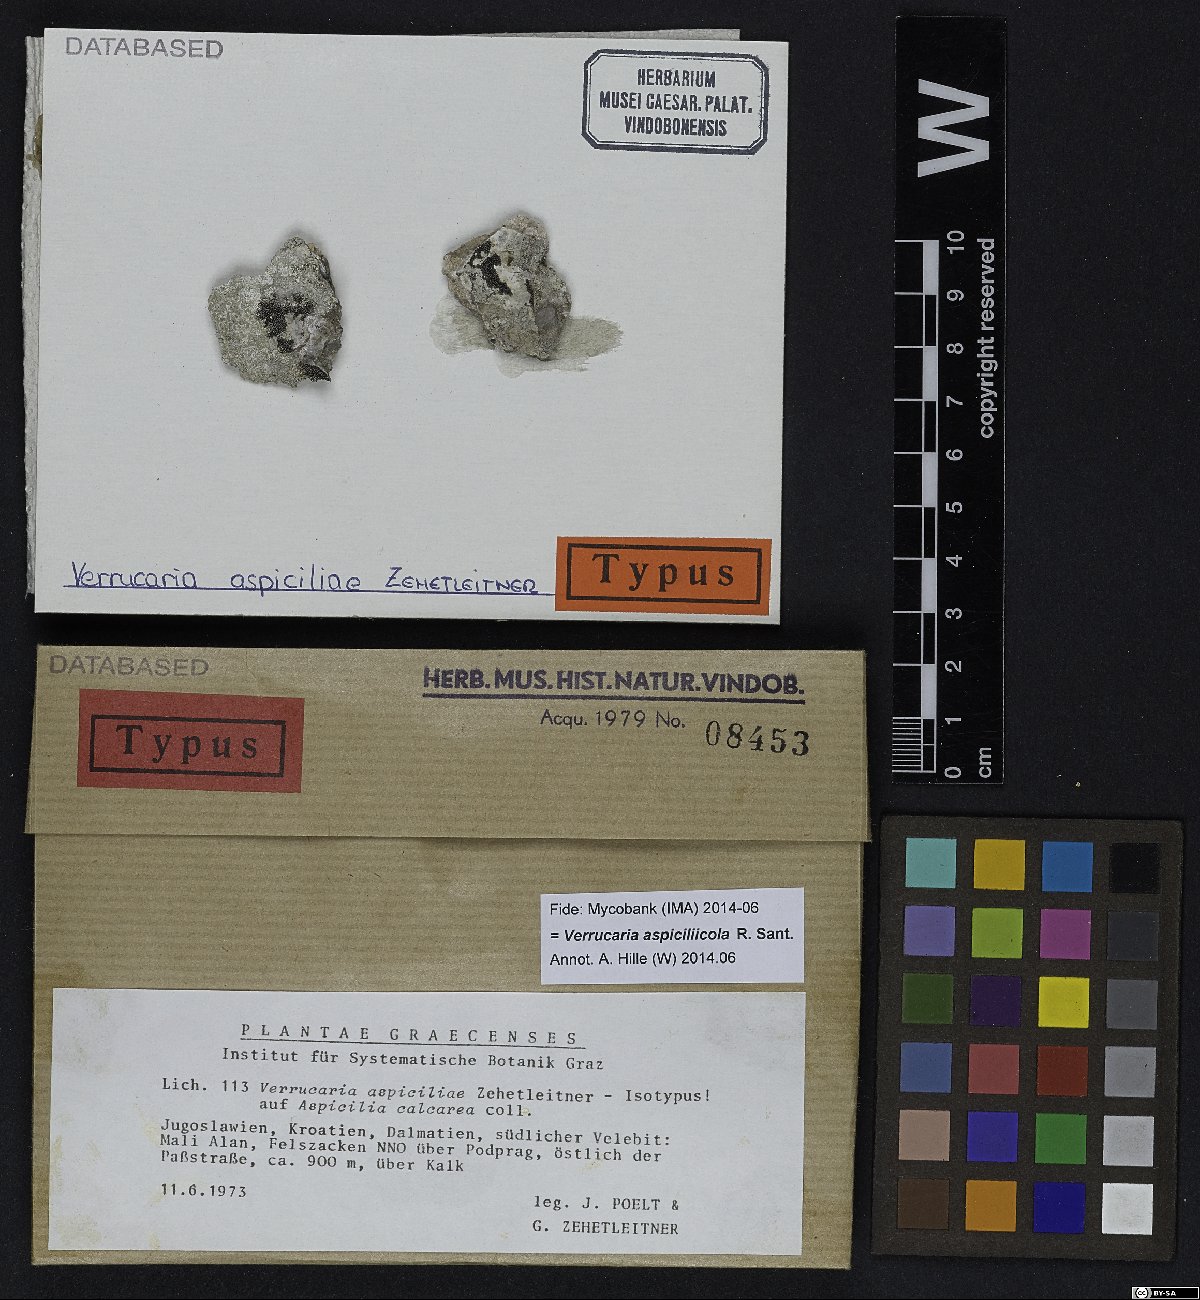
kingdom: Fungi
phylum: Ascomycota
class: Eurotiomycetes
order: Verrucariales
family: Verrucariaceae
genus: Verrucaria
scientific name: Verrucaria canella
